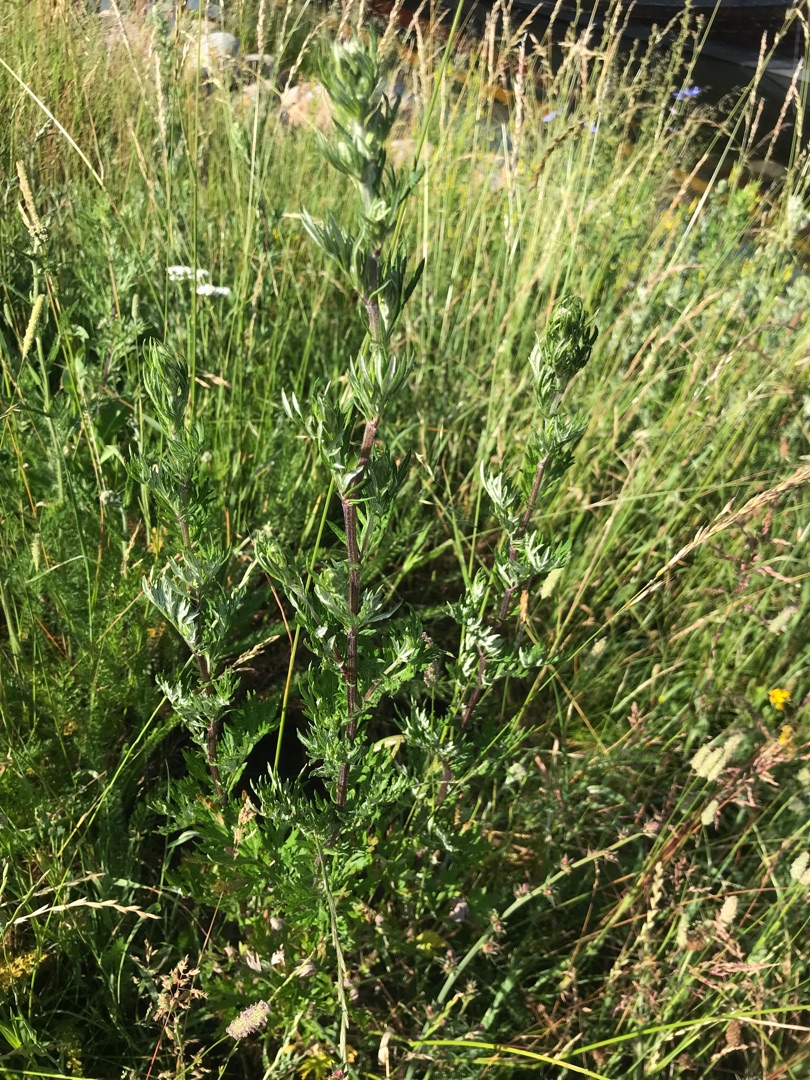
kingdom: Plantae
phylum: Tracheophyta
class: Magnoliopsida
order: Asterales
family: Asteraceae
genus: Artemisia
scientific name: Artemisia vulgaris
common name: Grå-bynke
